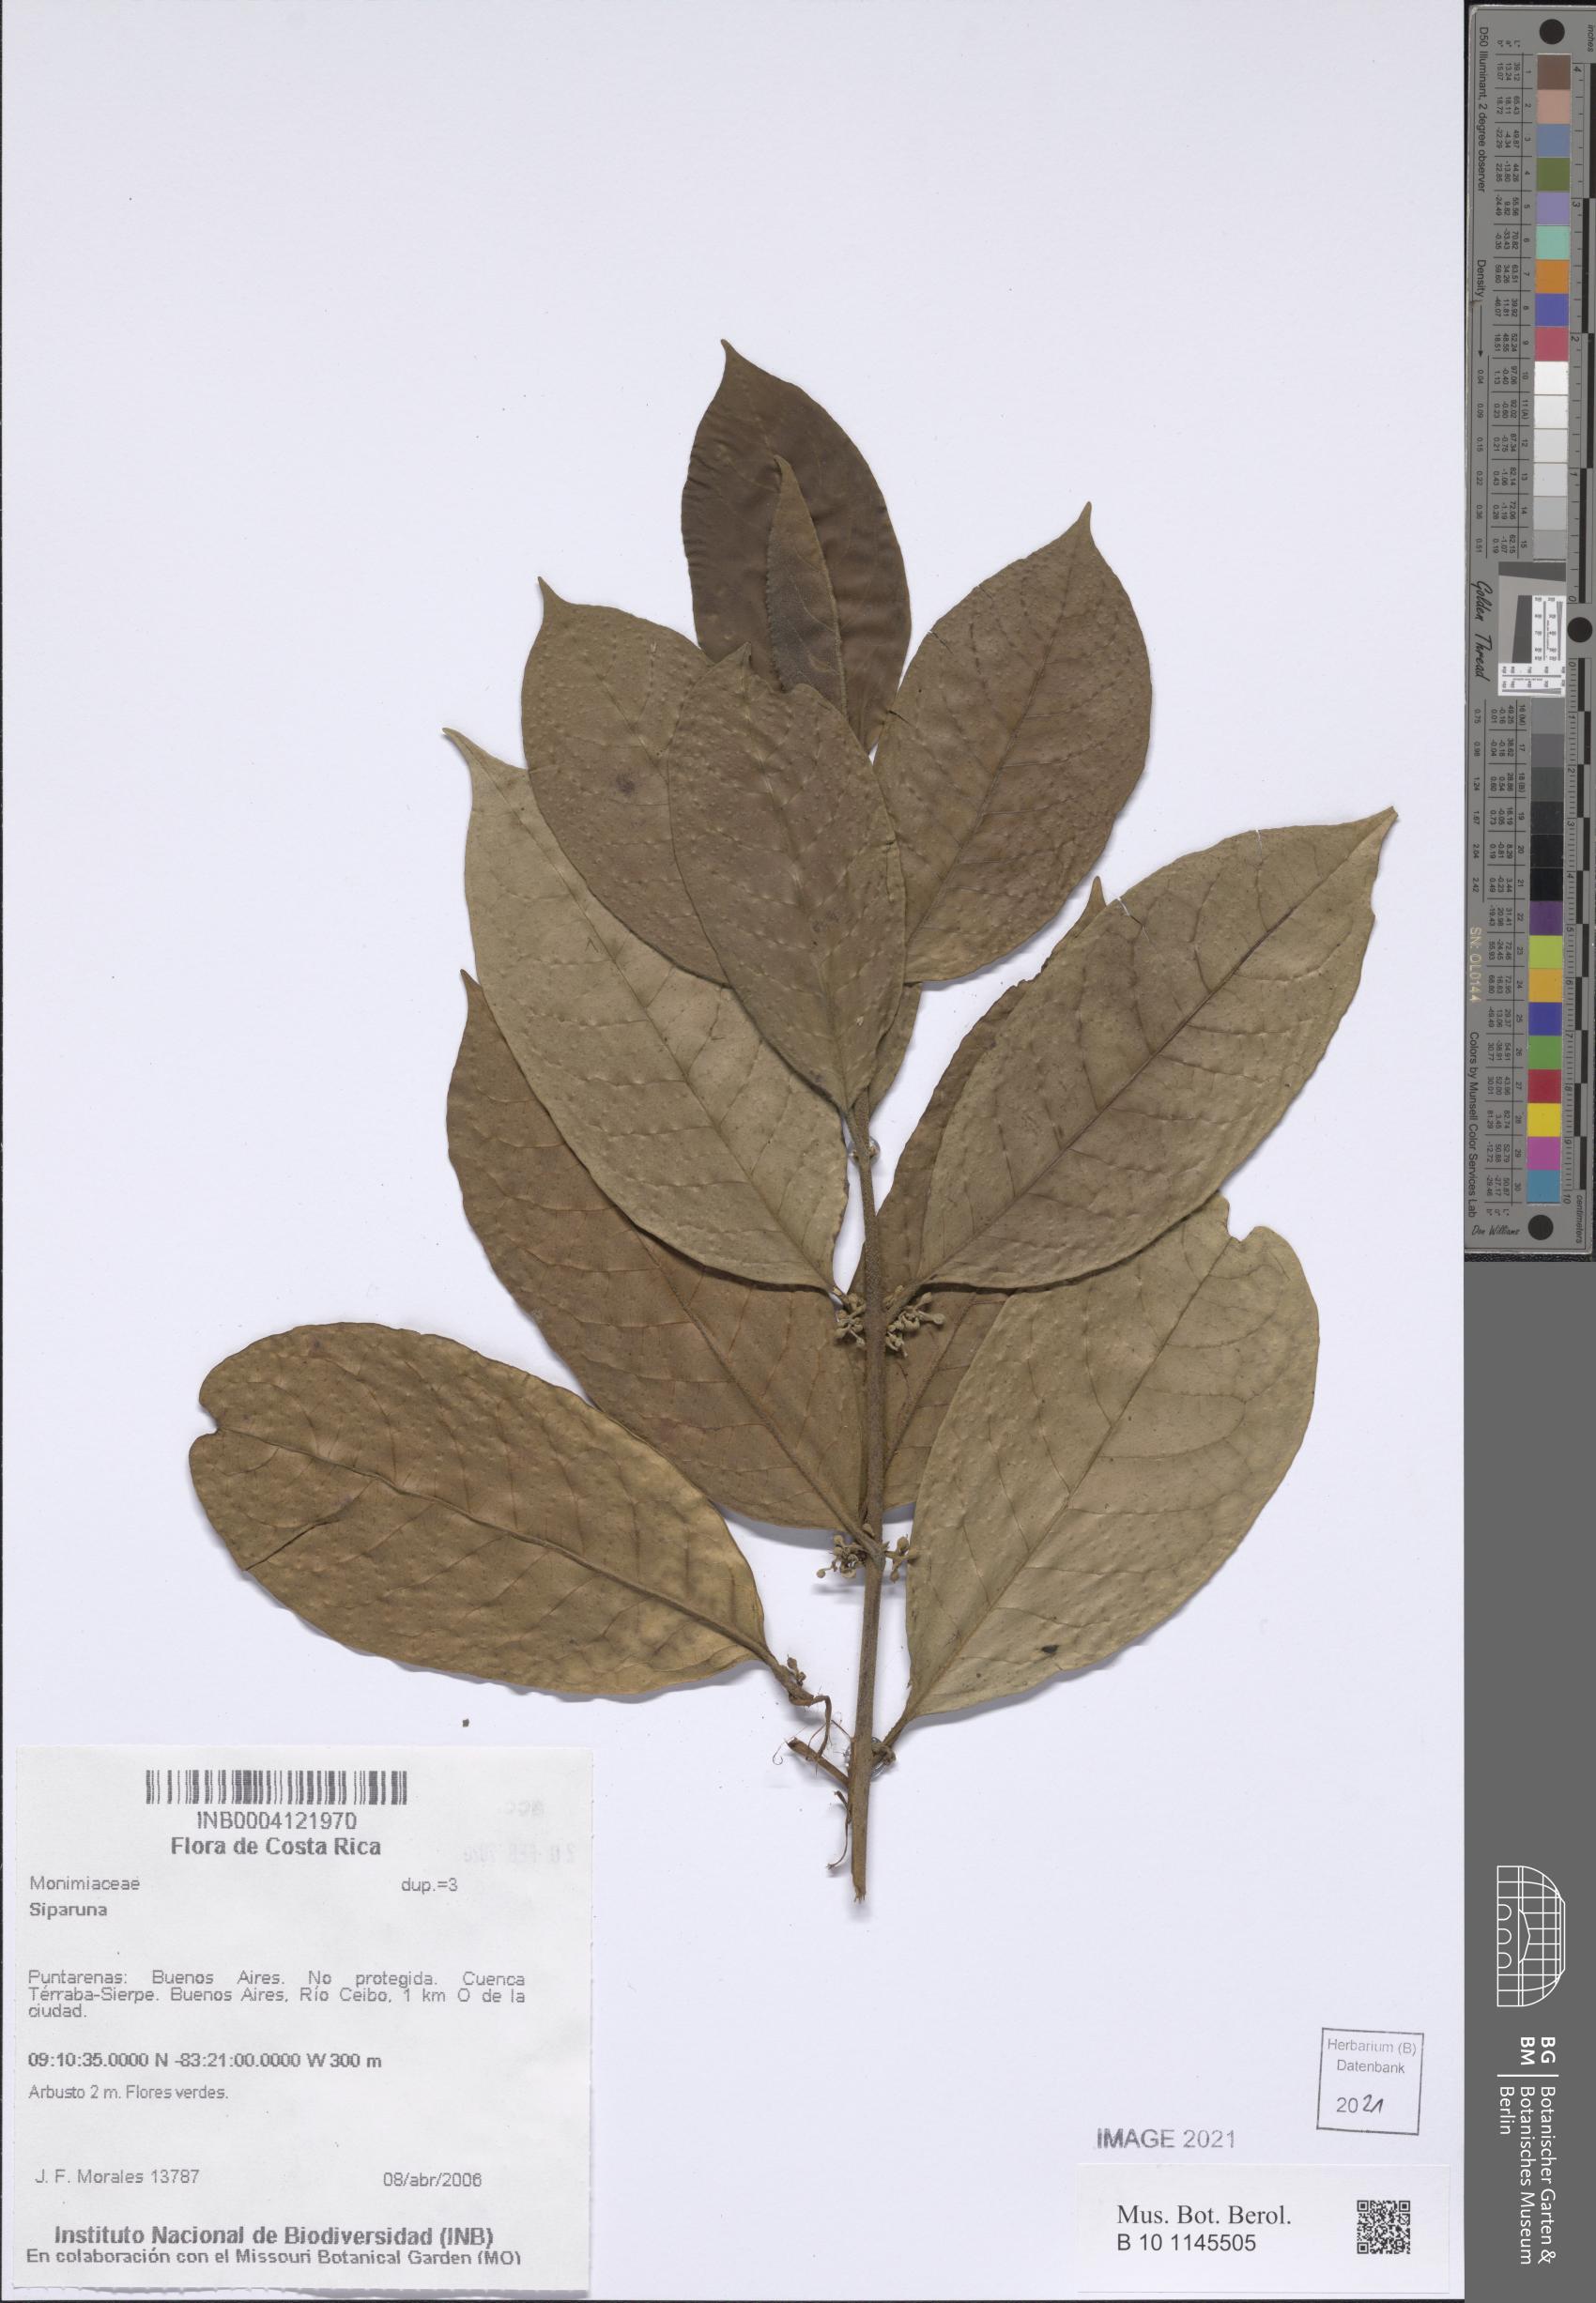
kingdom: Plantae
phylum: Tracheophyta
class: Magnoliopsida
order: Laurales
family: Siparunaceae
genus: Siparuna
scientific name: Siparuna
